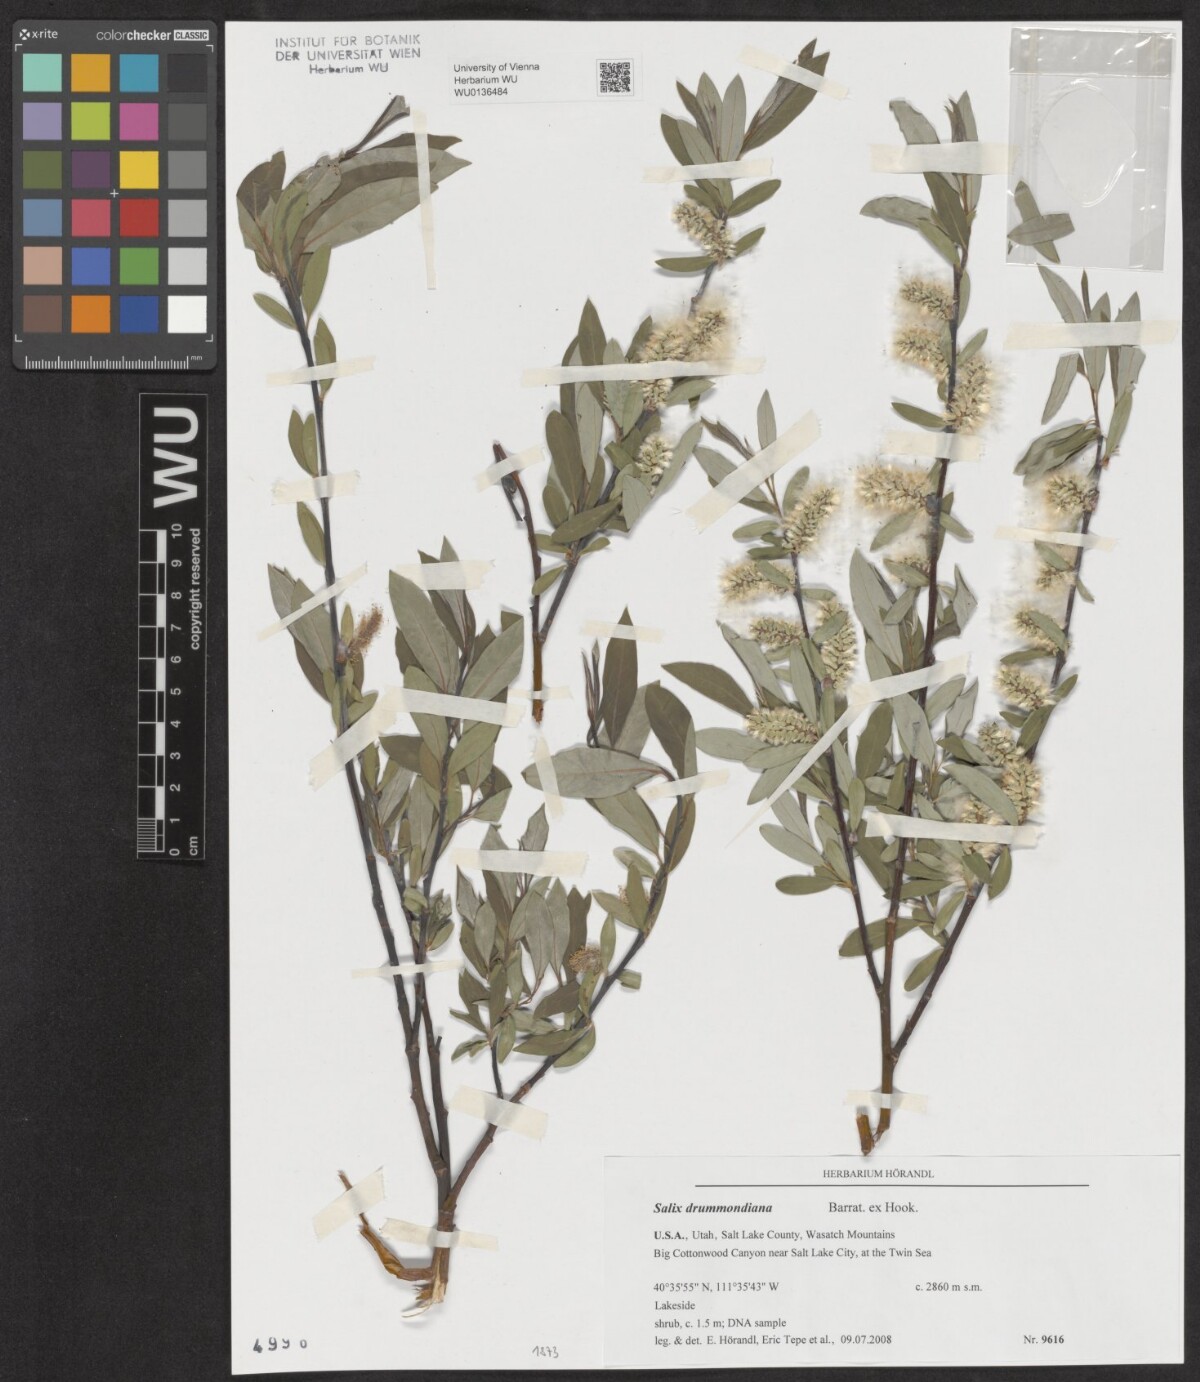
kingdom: Plantae
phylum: Tracheophyta
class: Magnoliopsida
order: Malpighiales
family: Salicaceae
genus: Salix
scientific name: Salix drummondiana
